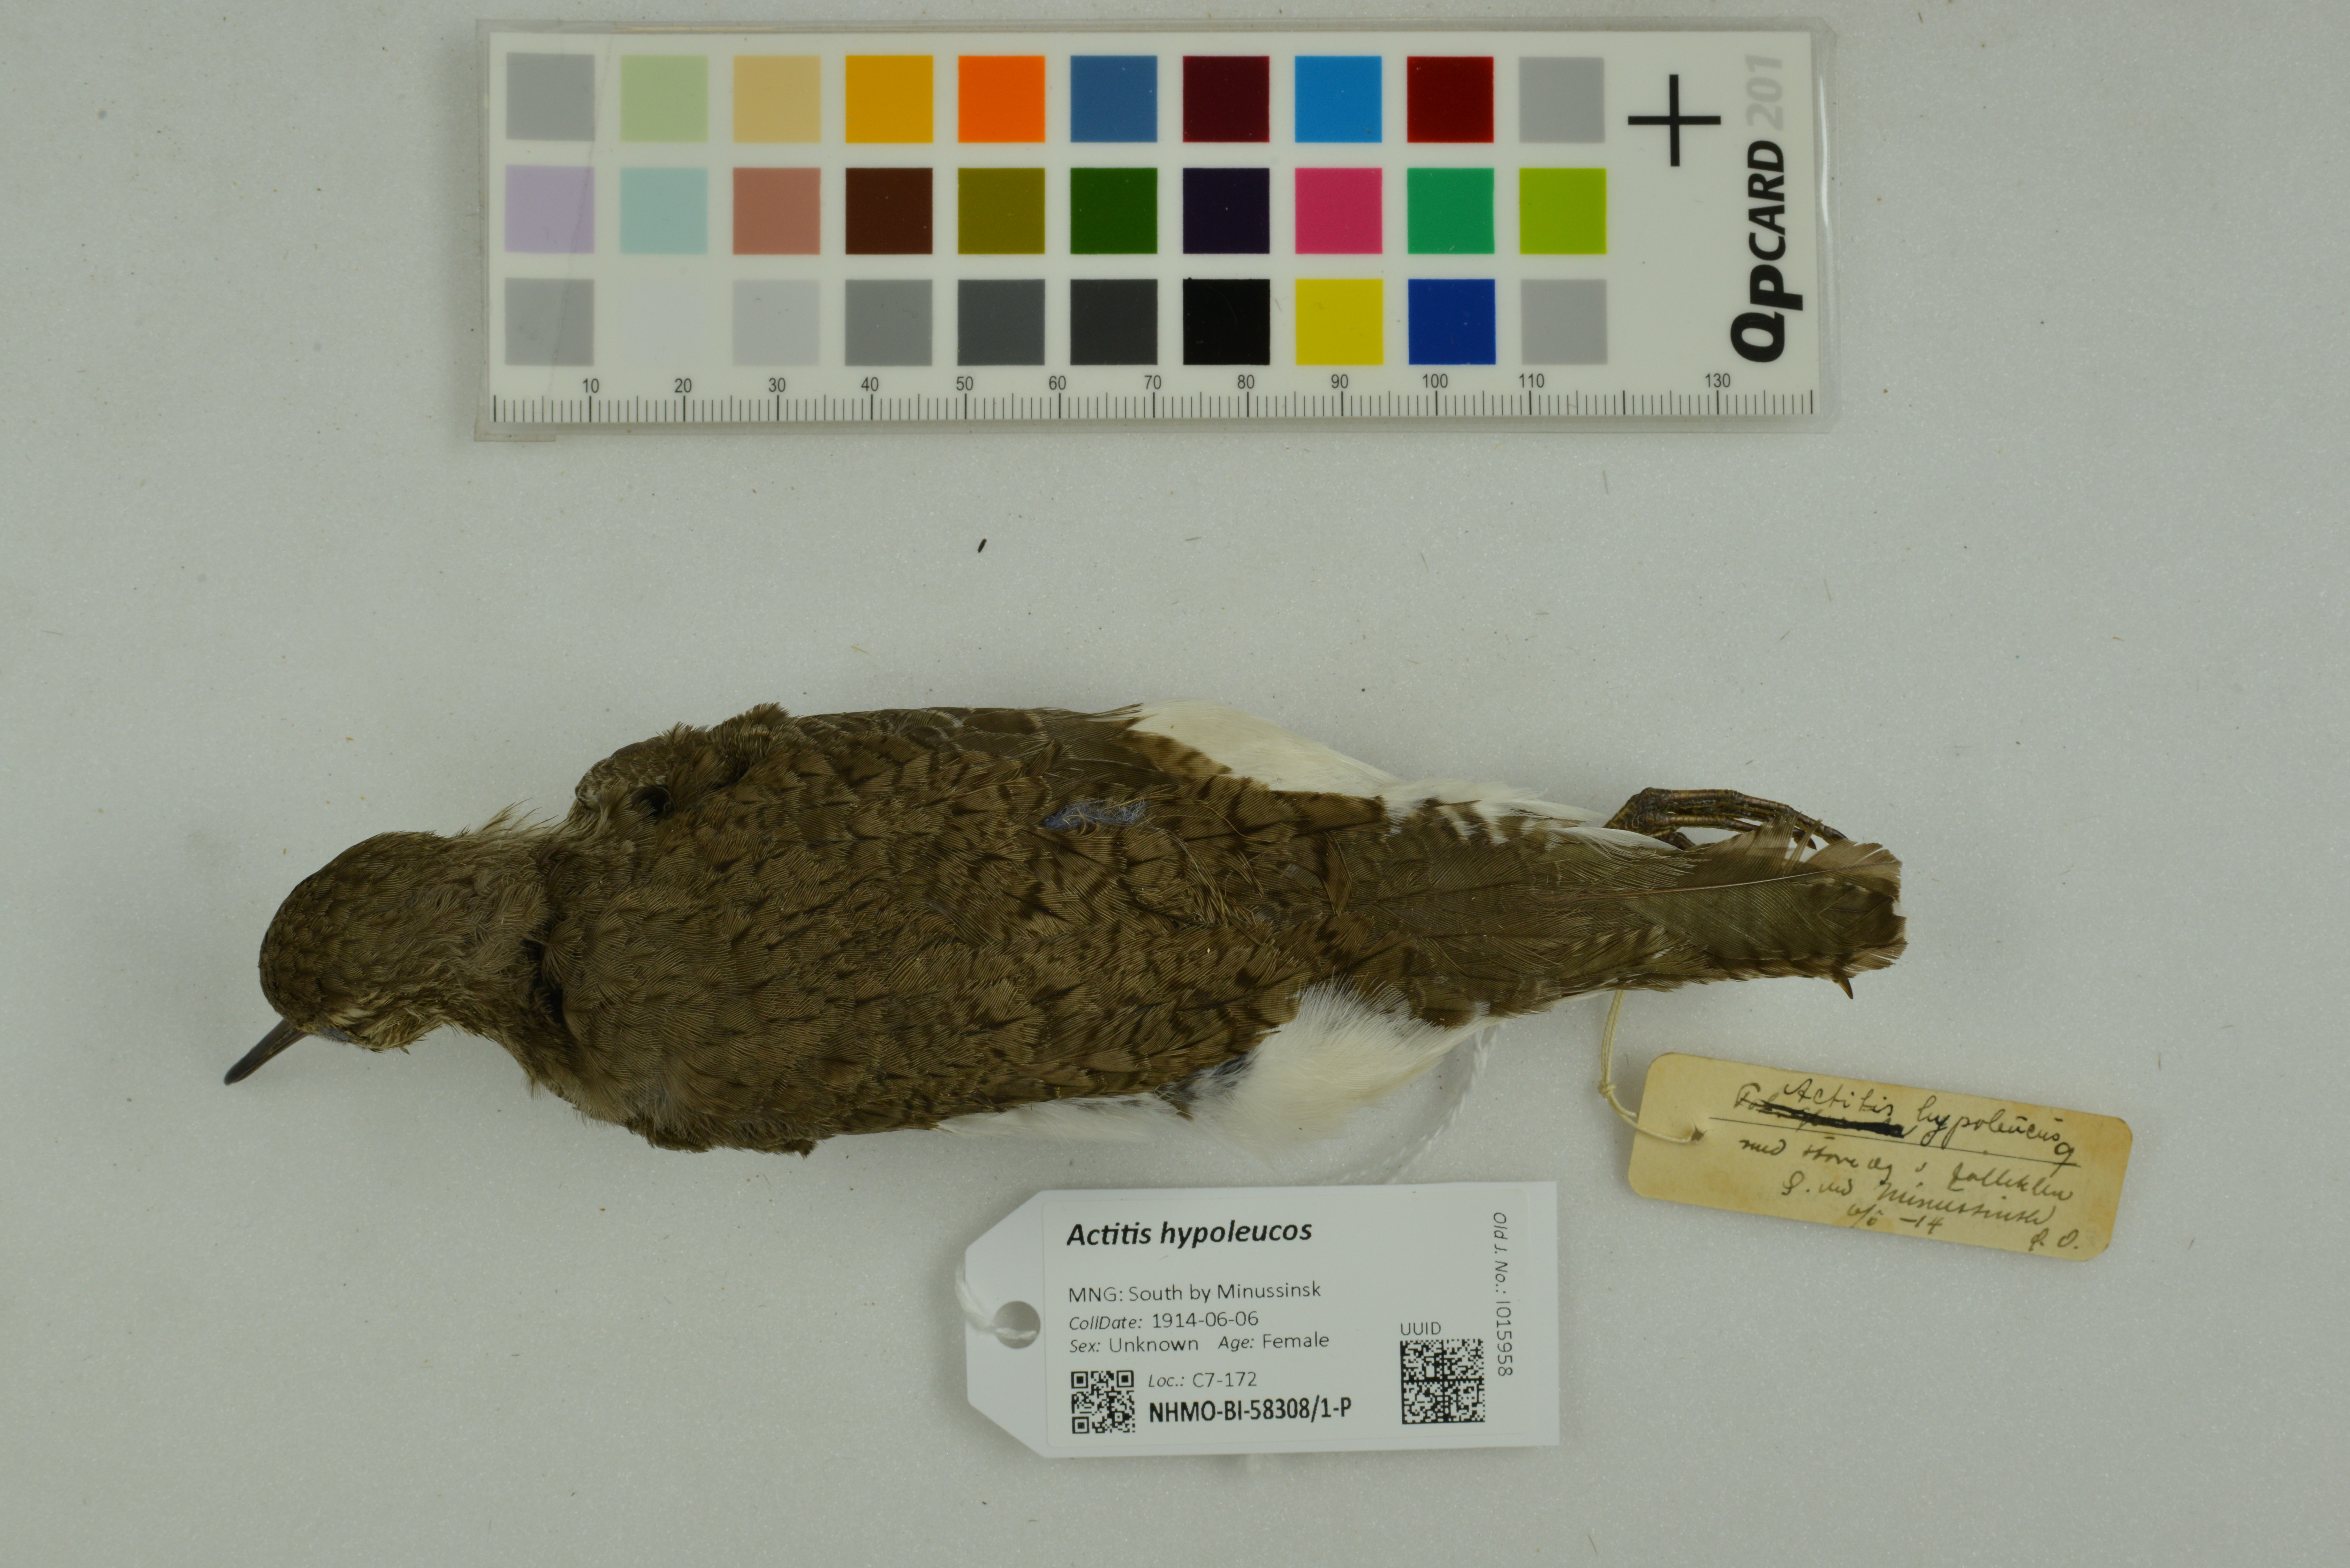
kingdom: Animalia
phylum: Chordata
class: Aves
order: Charadriiformes
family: Scolopacidae
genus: Actitis
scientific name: Actitis hypoleucos
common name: Common sandpiper
